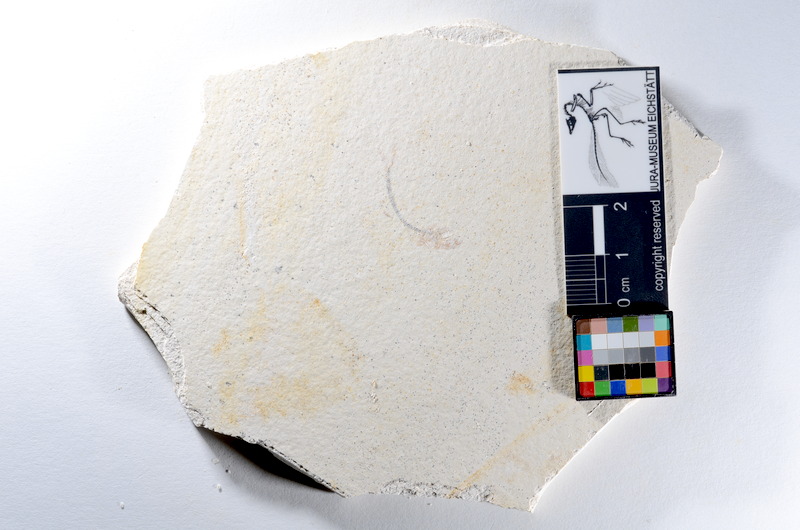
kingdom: Animalia
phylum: Chordata
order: Salmoniformes
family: Orthogonikleithridae
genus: Orthogonikleithrus
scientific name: Orthogonikleithrus hoelli
